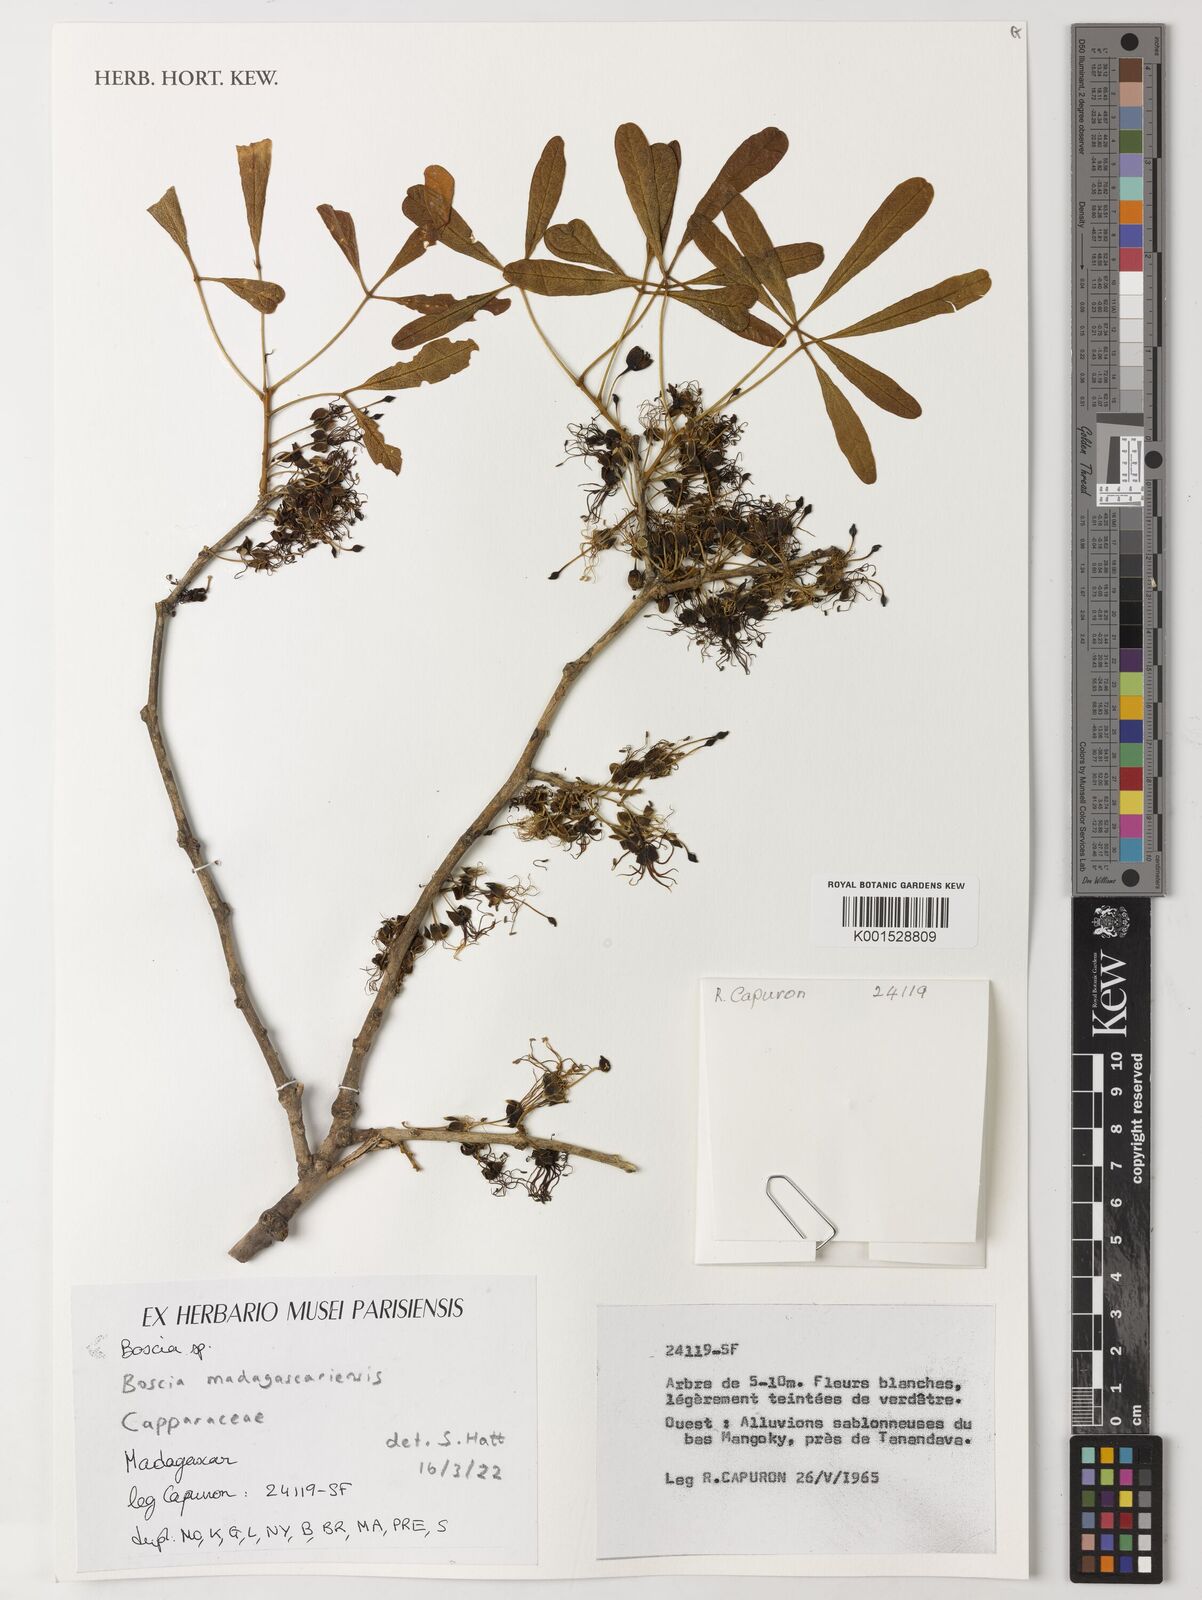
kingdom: Plantae
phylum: Tracheophyta
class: Magnoliopsida
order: Brassicales
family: Capparaceae
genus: Boscia
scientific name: Boscia madagascariensis
